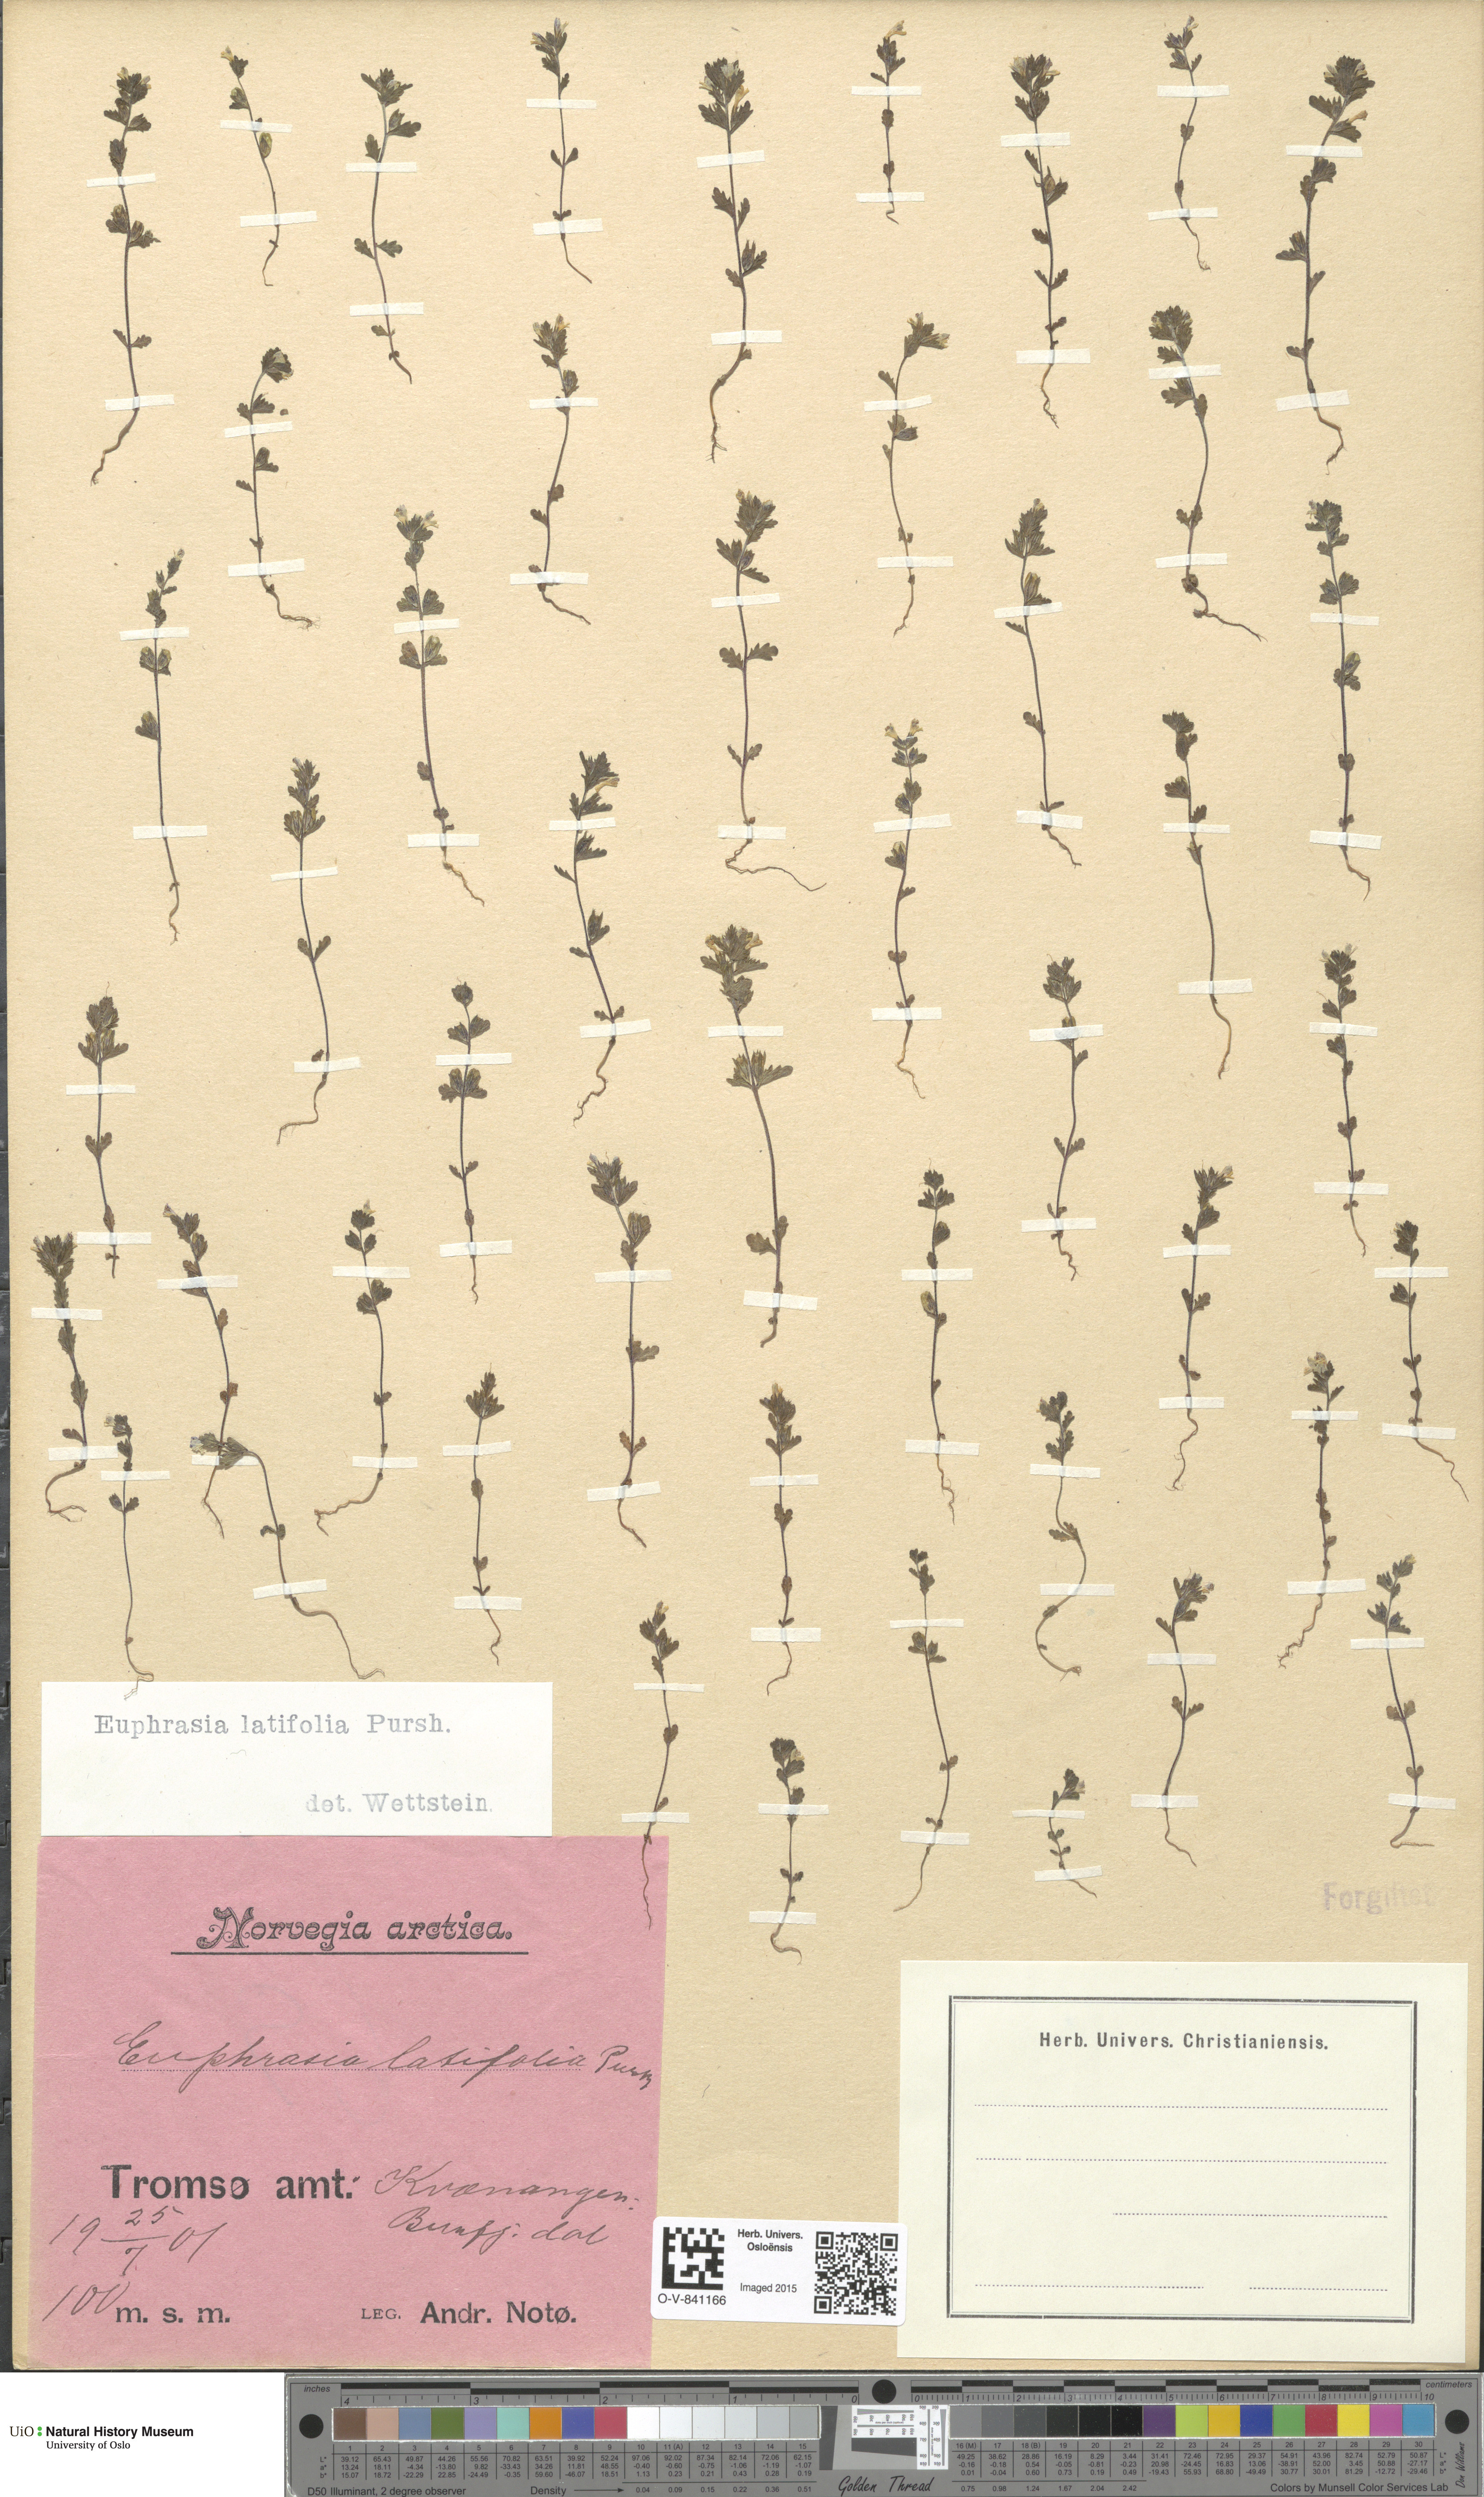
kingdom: Plantae
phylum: Tracheophyta
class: Magnoliopsida
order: Lamiales
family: Orobanchaceae
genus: Euphrasia
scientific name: Euphrasia wettsteinii
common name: Wettstein's eyebright
